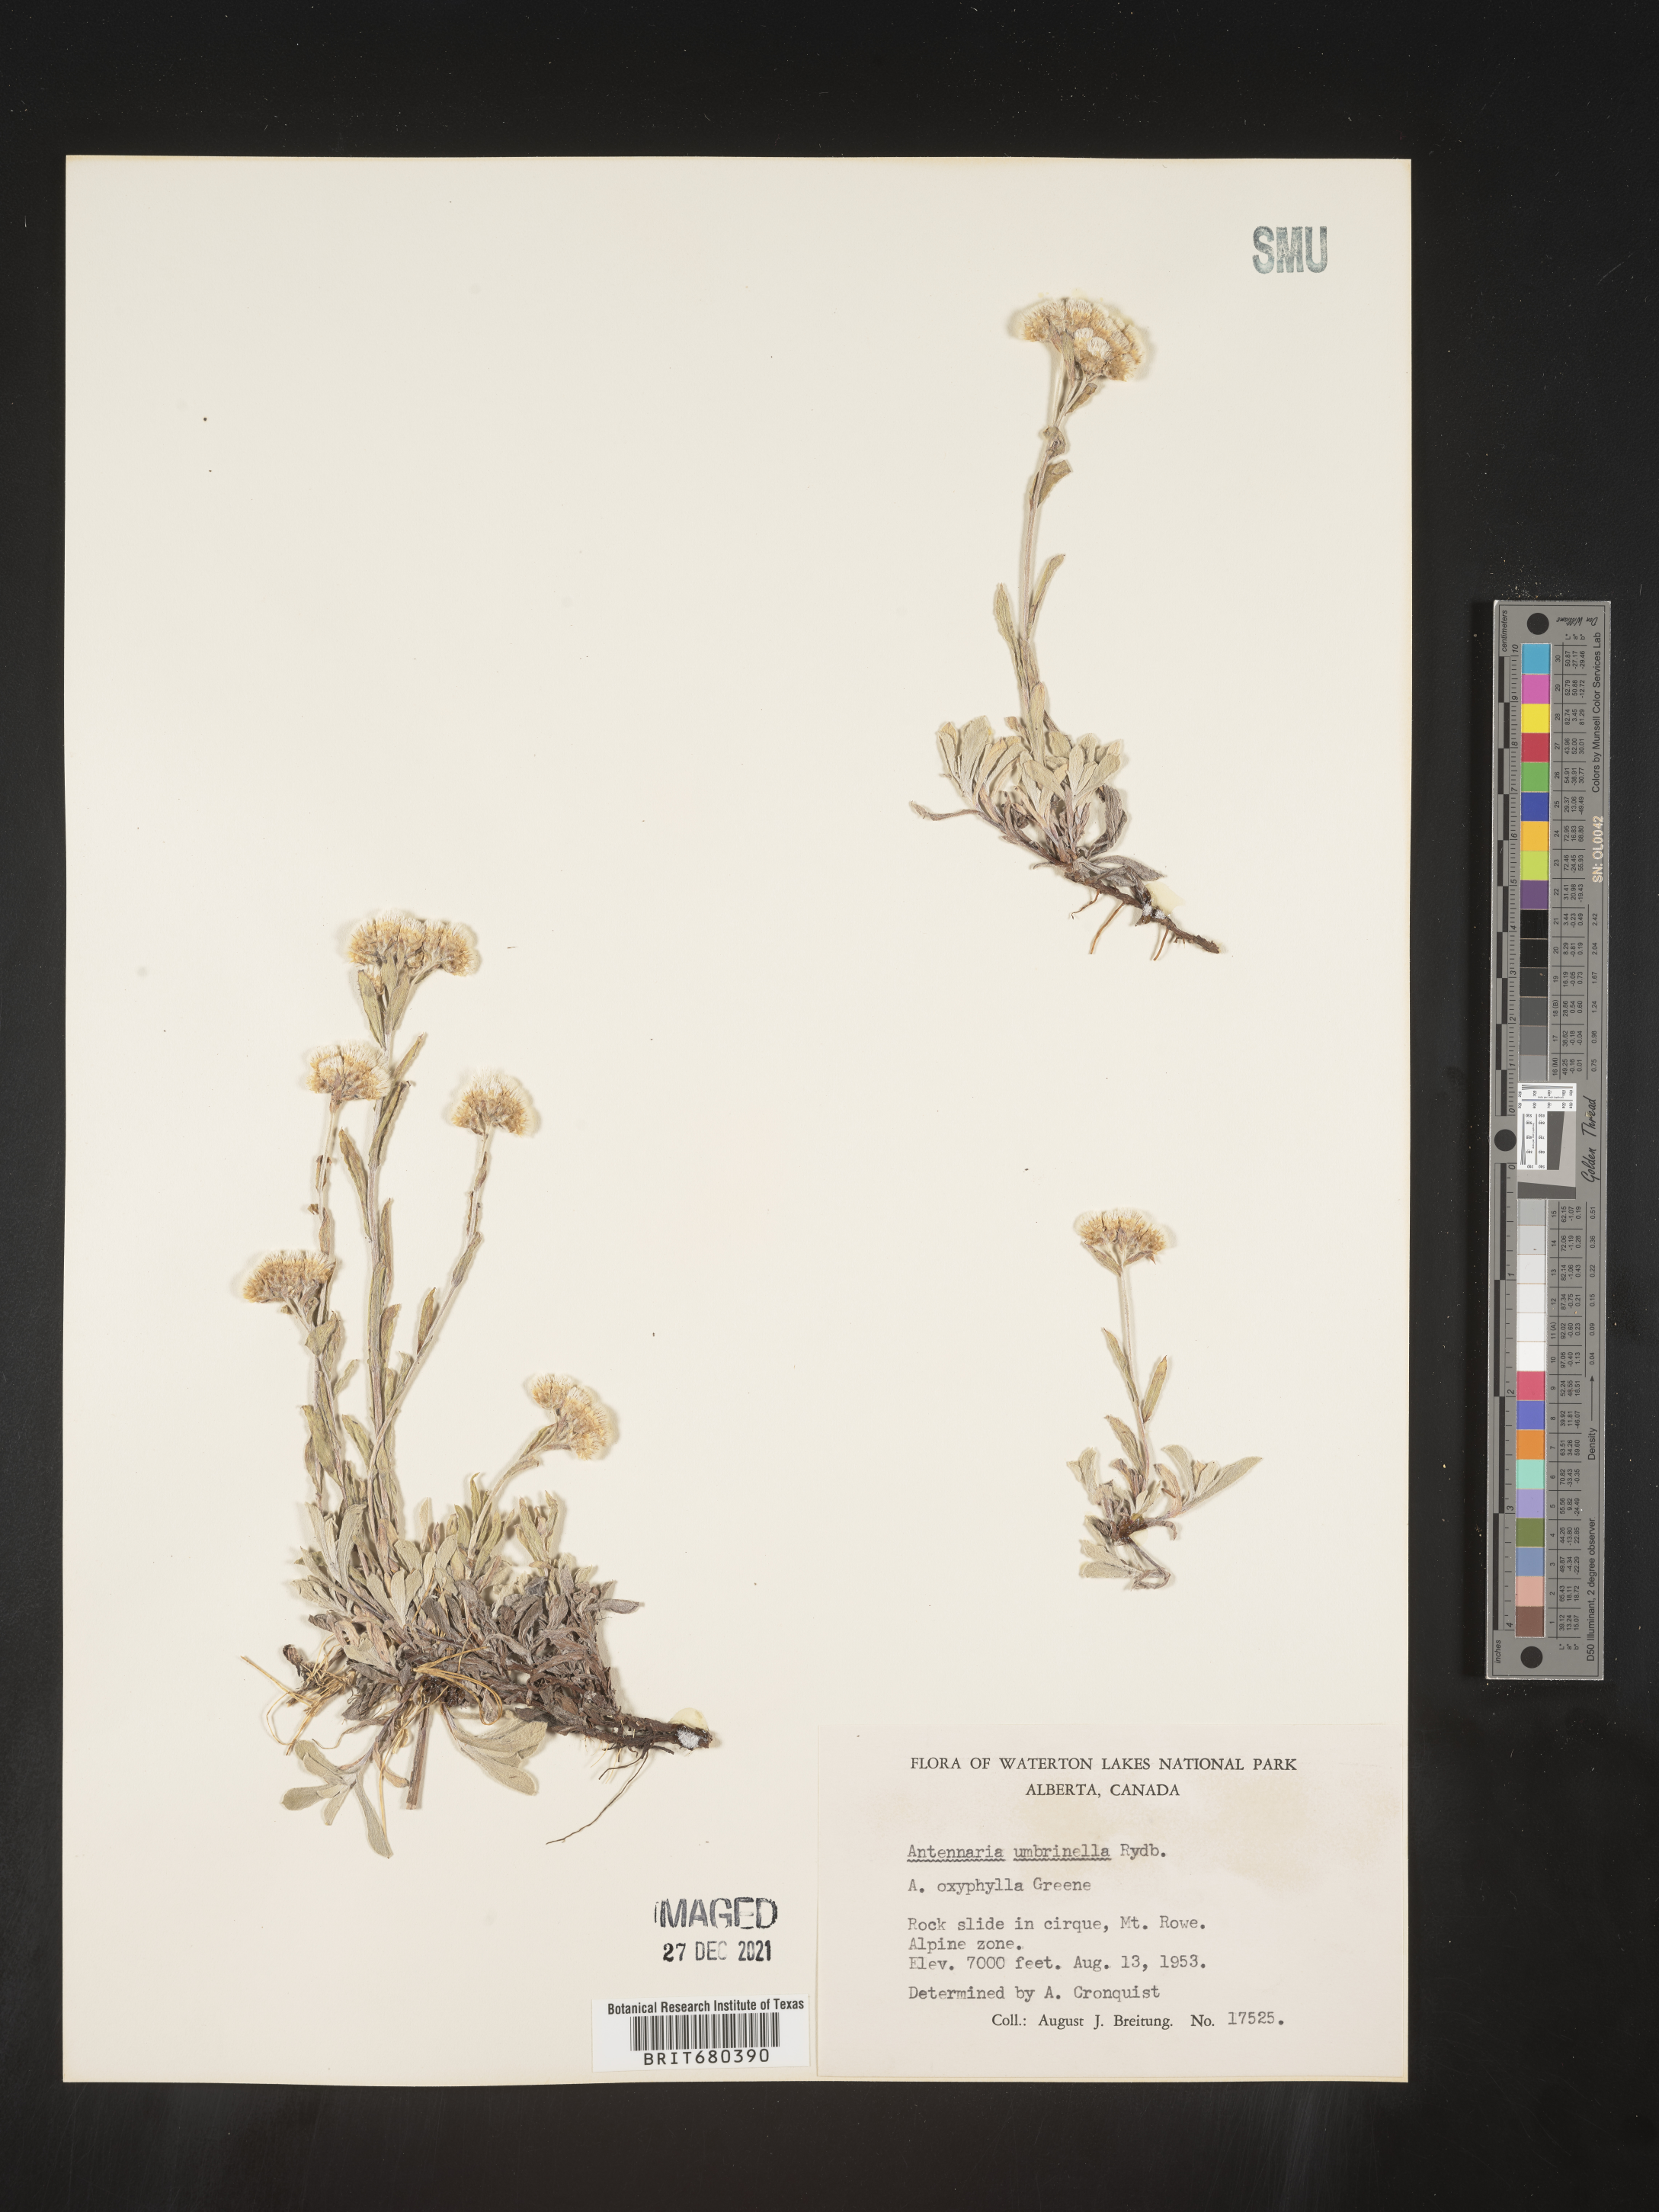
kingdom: Plantae
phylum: Tracheophyta
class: Magnoliopsida
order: Asterales
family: Asteraceae
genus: Antennaria
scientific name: Antennaria umbrinella
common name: Brown pussytoes
